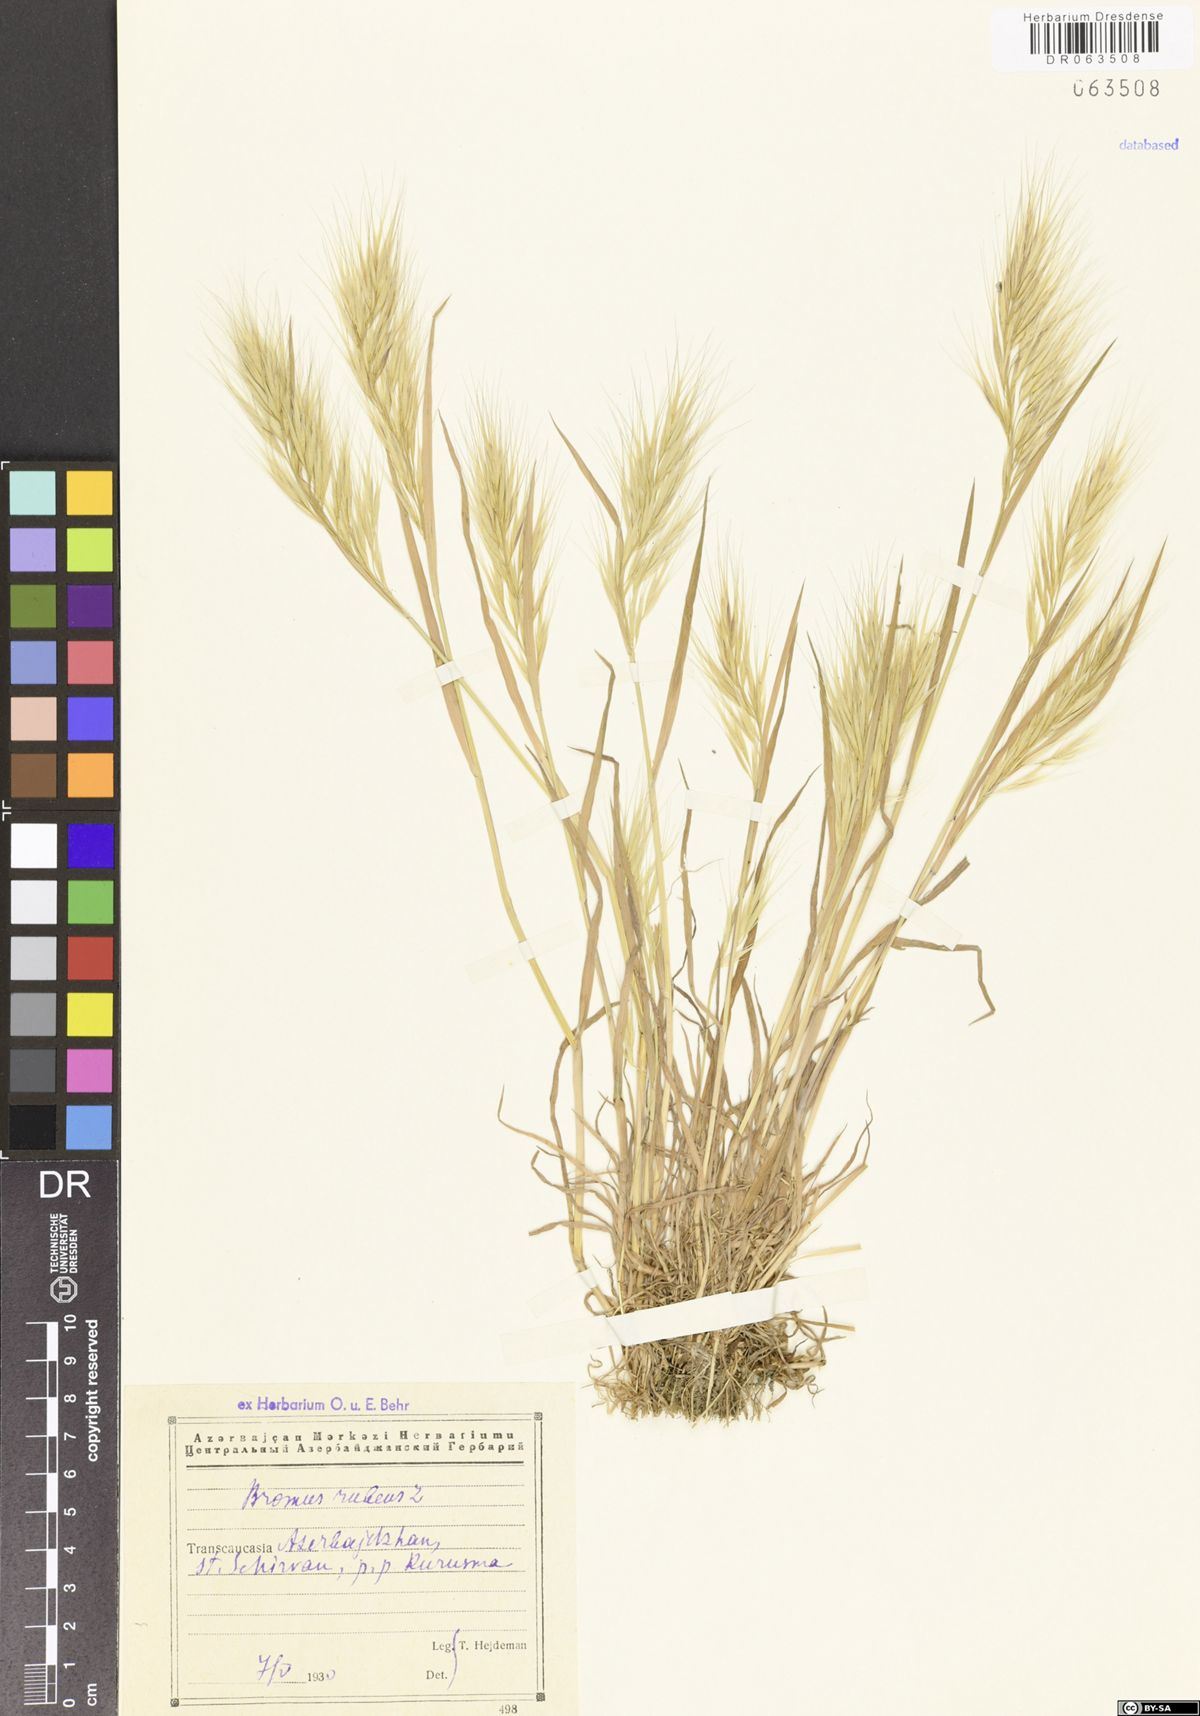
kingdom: Plantae
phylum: Tracheophyta
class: Liliopsida
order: Poales
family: Poaceae
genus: Bromus
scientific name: Bromus rubens
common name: Red brome
